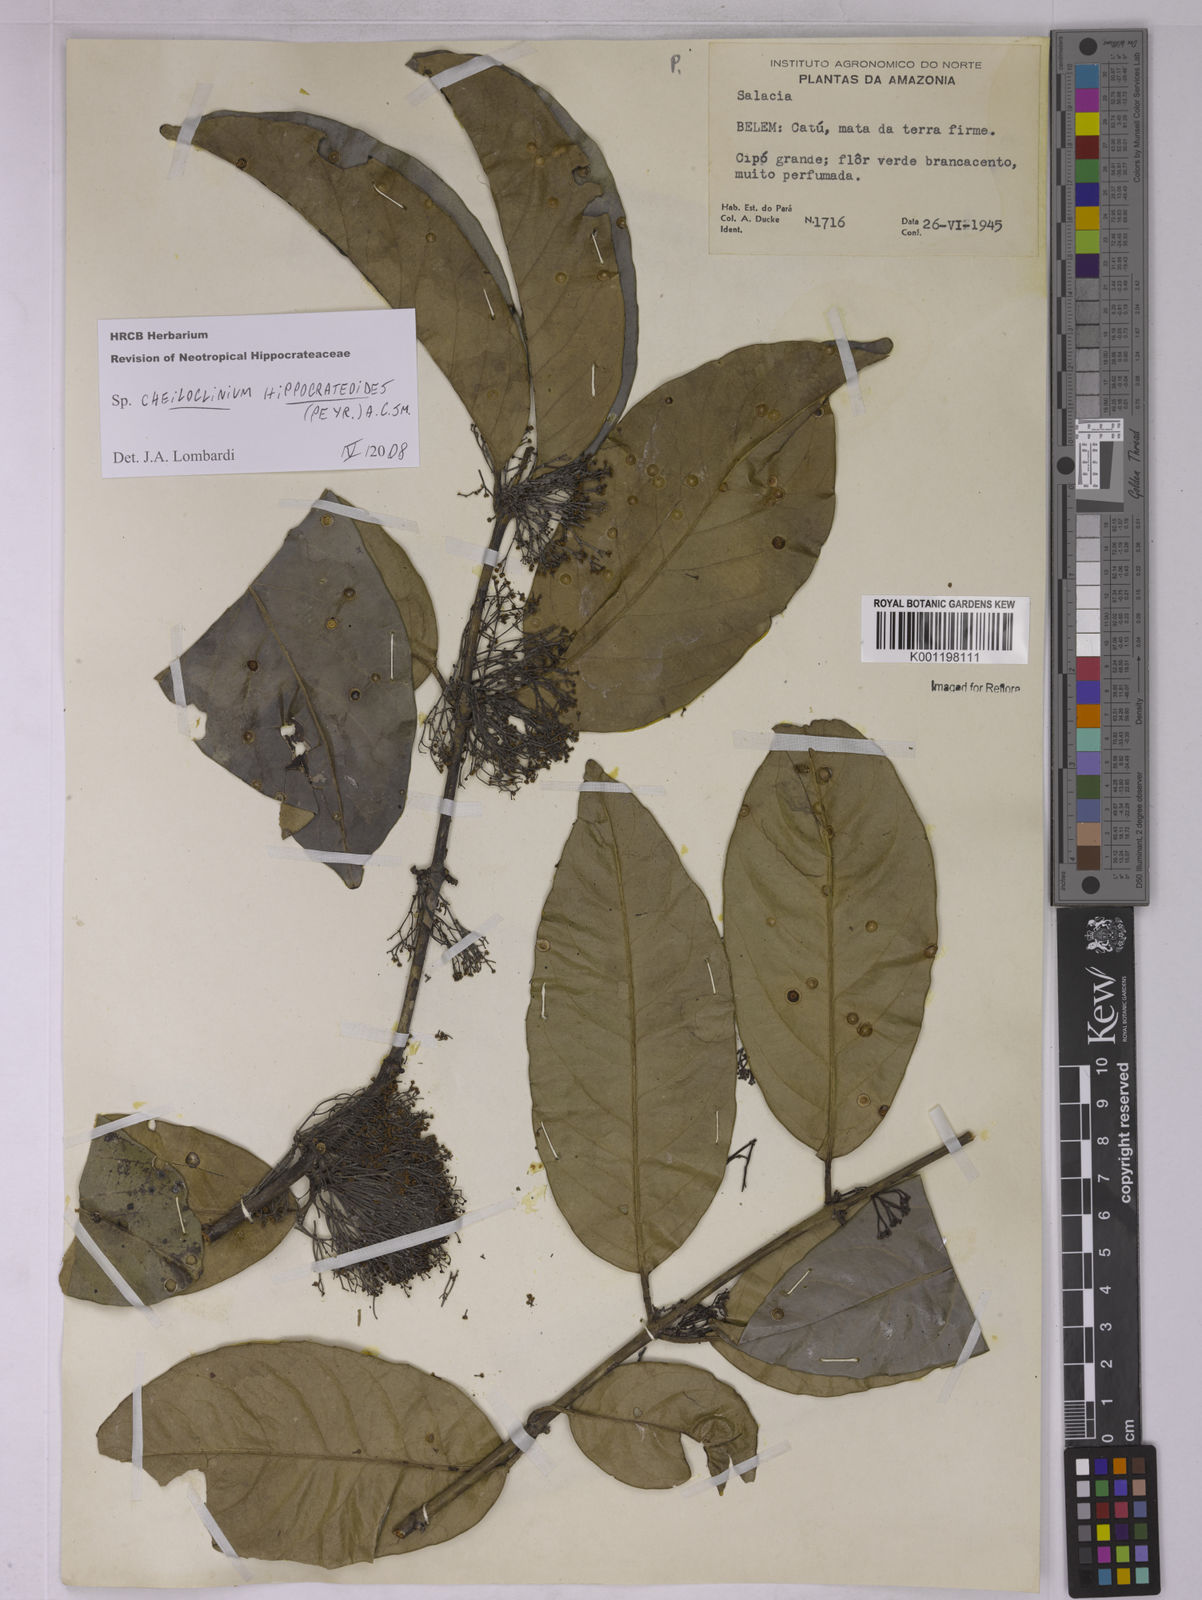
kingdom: Plantae
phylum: Tracheophyta
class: Magnoliopsida
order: Celastrales
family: Celastraceae
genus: Cheiloclinium
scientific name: Cheiloclinium
